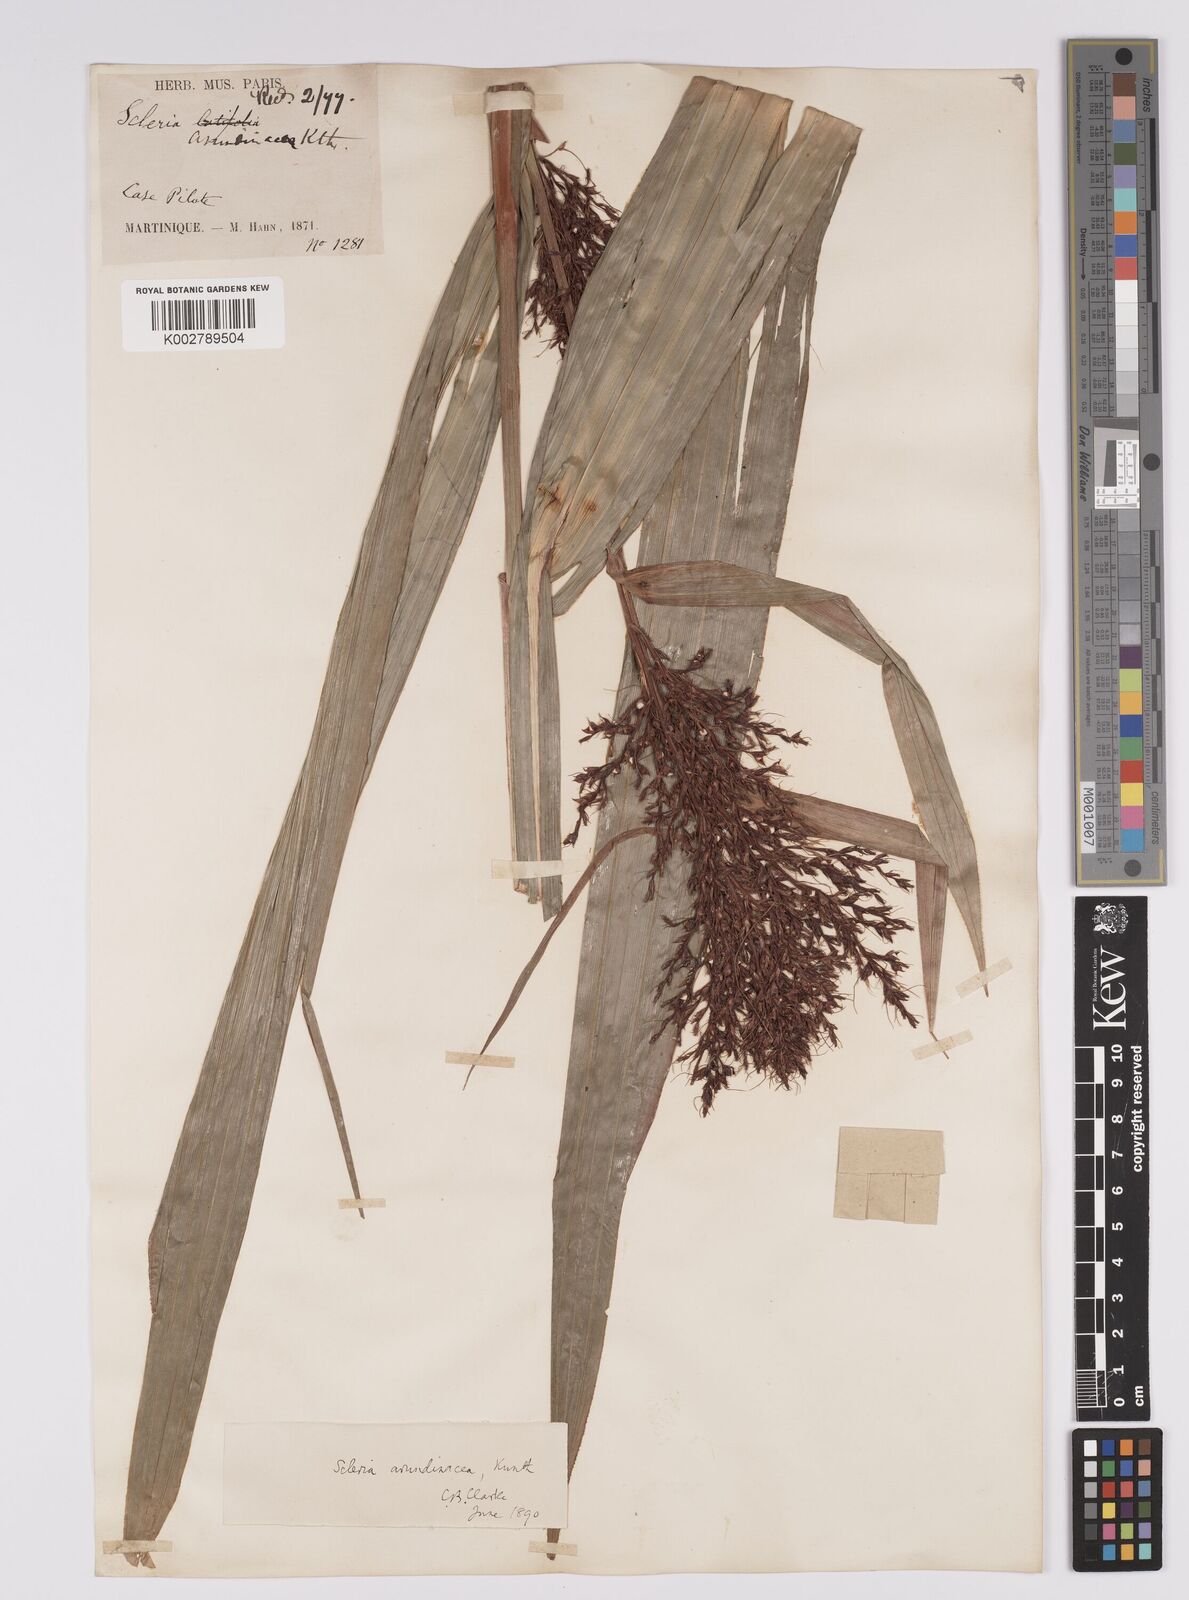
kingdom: Plantae
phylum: Tracheophyta
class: Liliopsida
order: Poales
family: Cyperaceae
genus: Scleria
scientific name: Scleria latifolia
